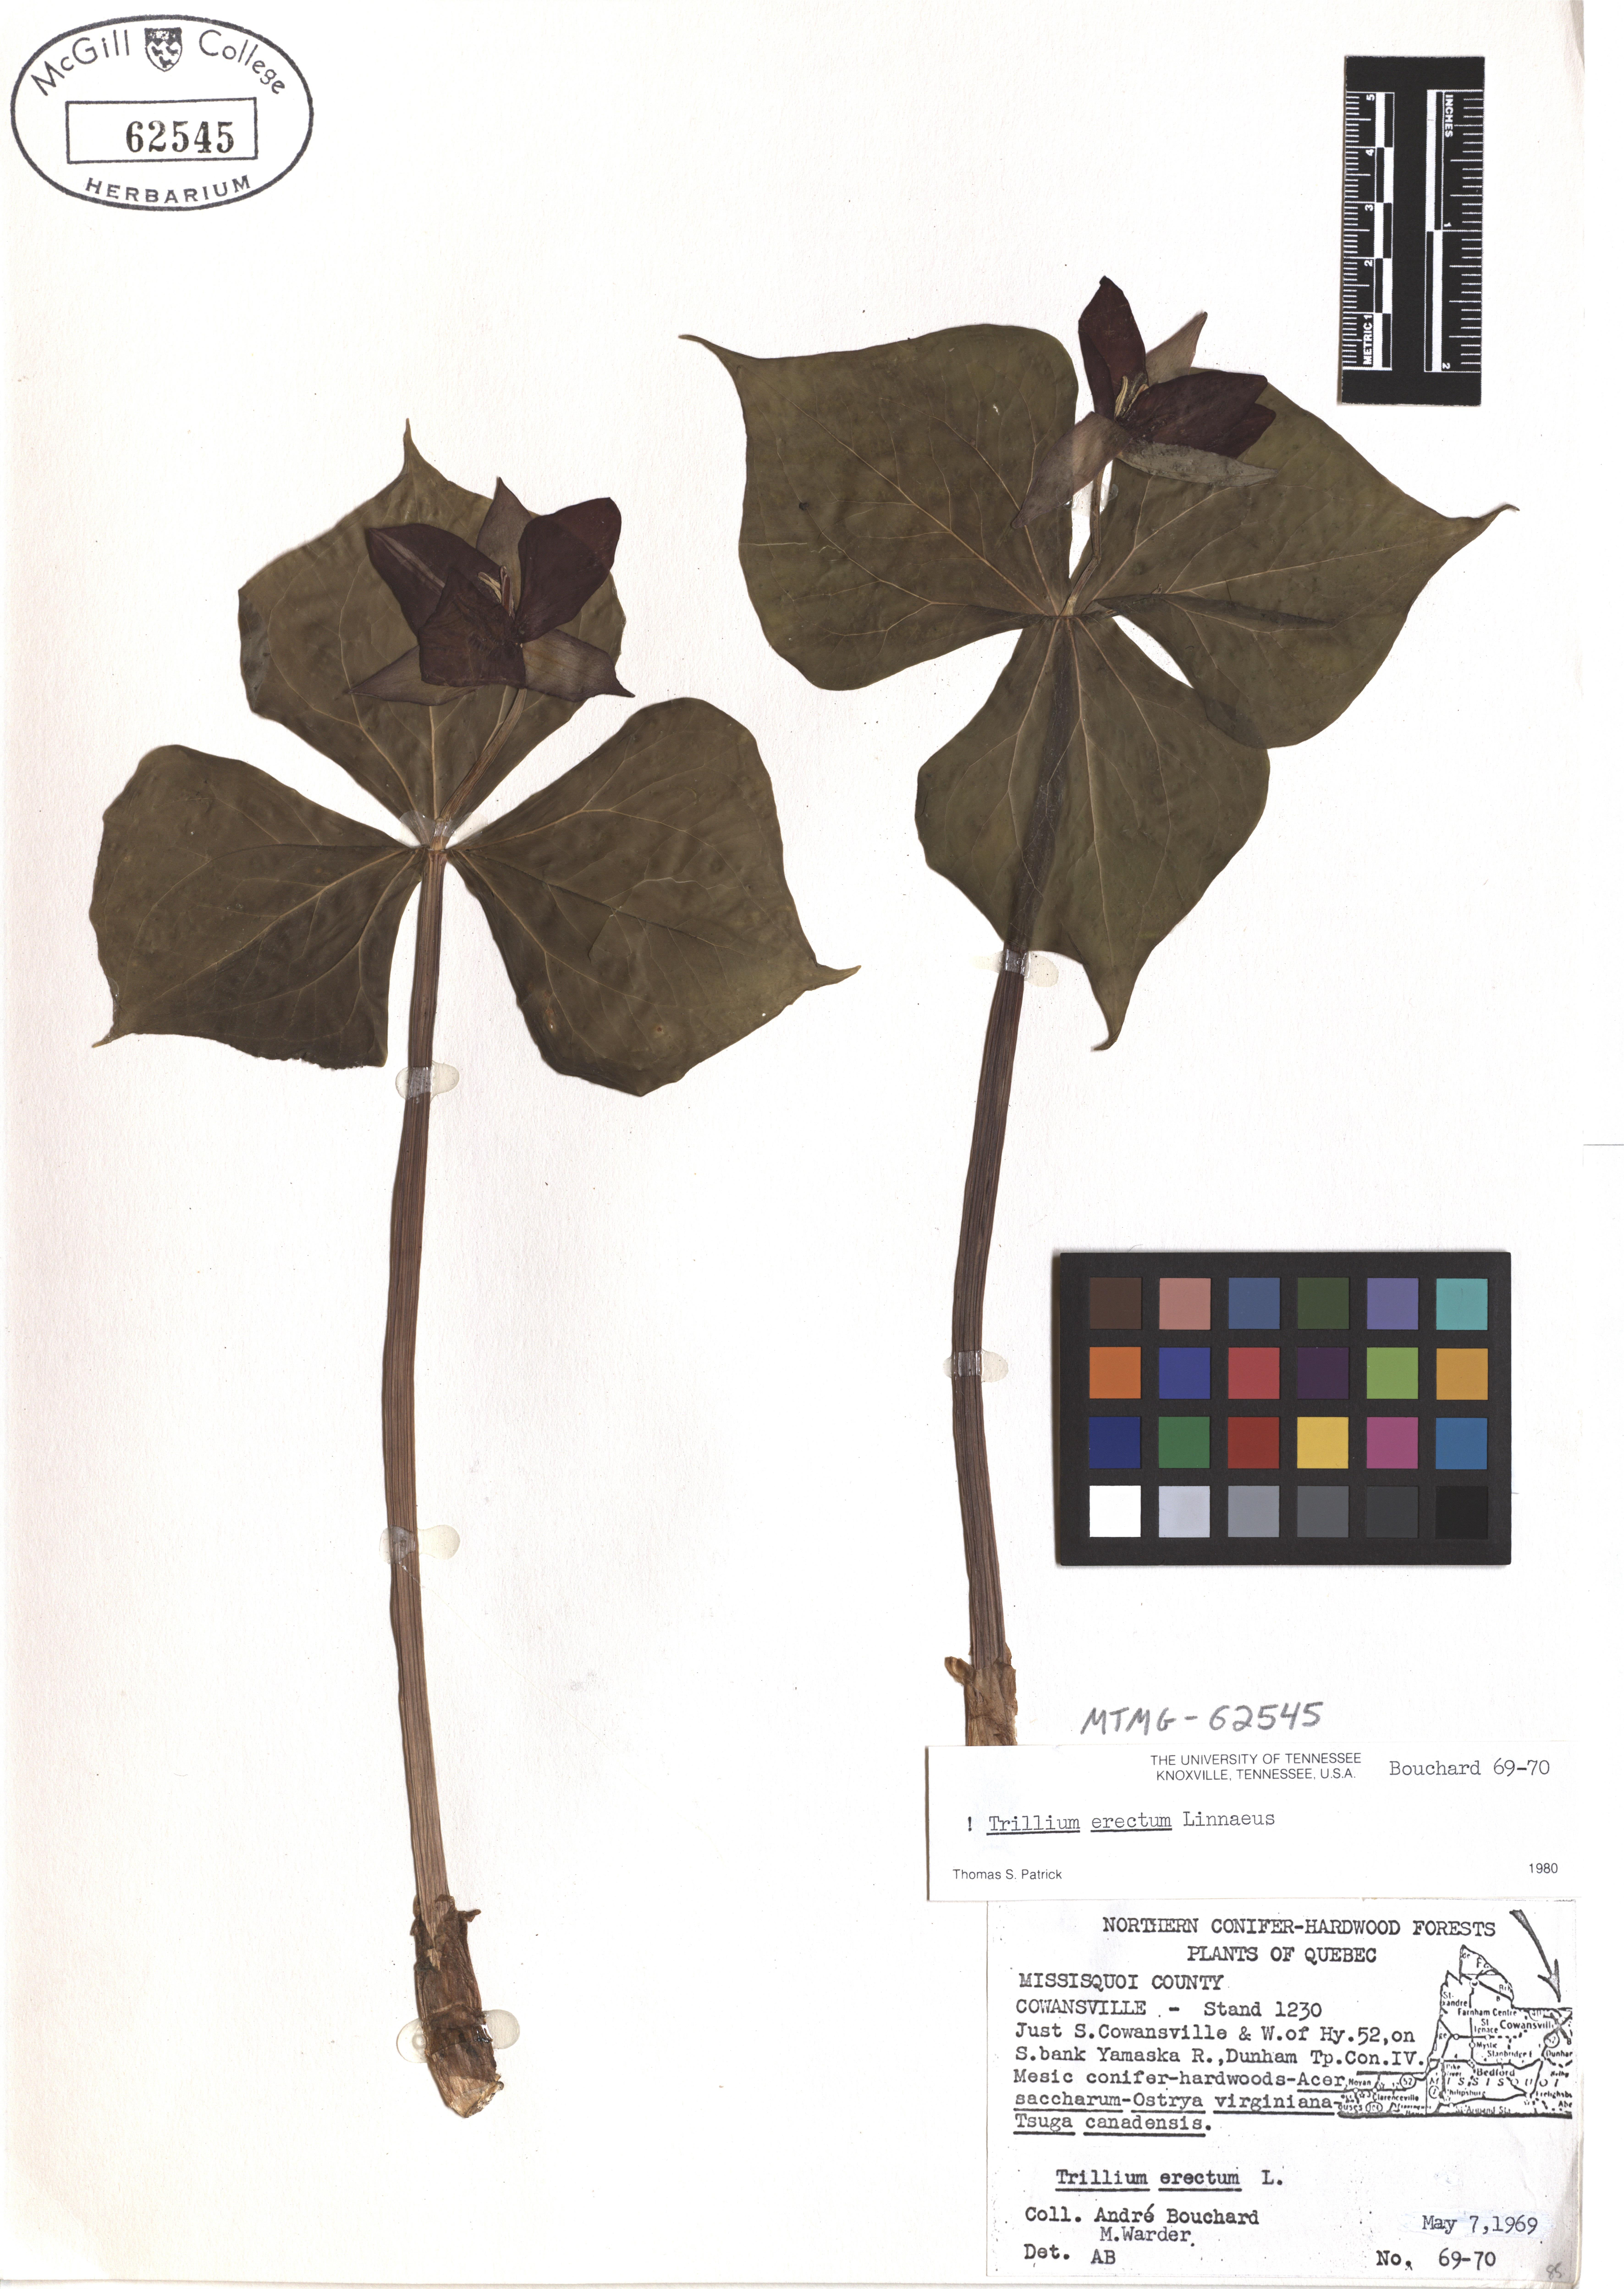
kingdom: Plantae
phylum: Tracheophyta
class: Liliopsida
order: Liliales
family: Melanthiaceae
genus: Trillium
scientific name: Trillium erectum
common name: Purple trillium
